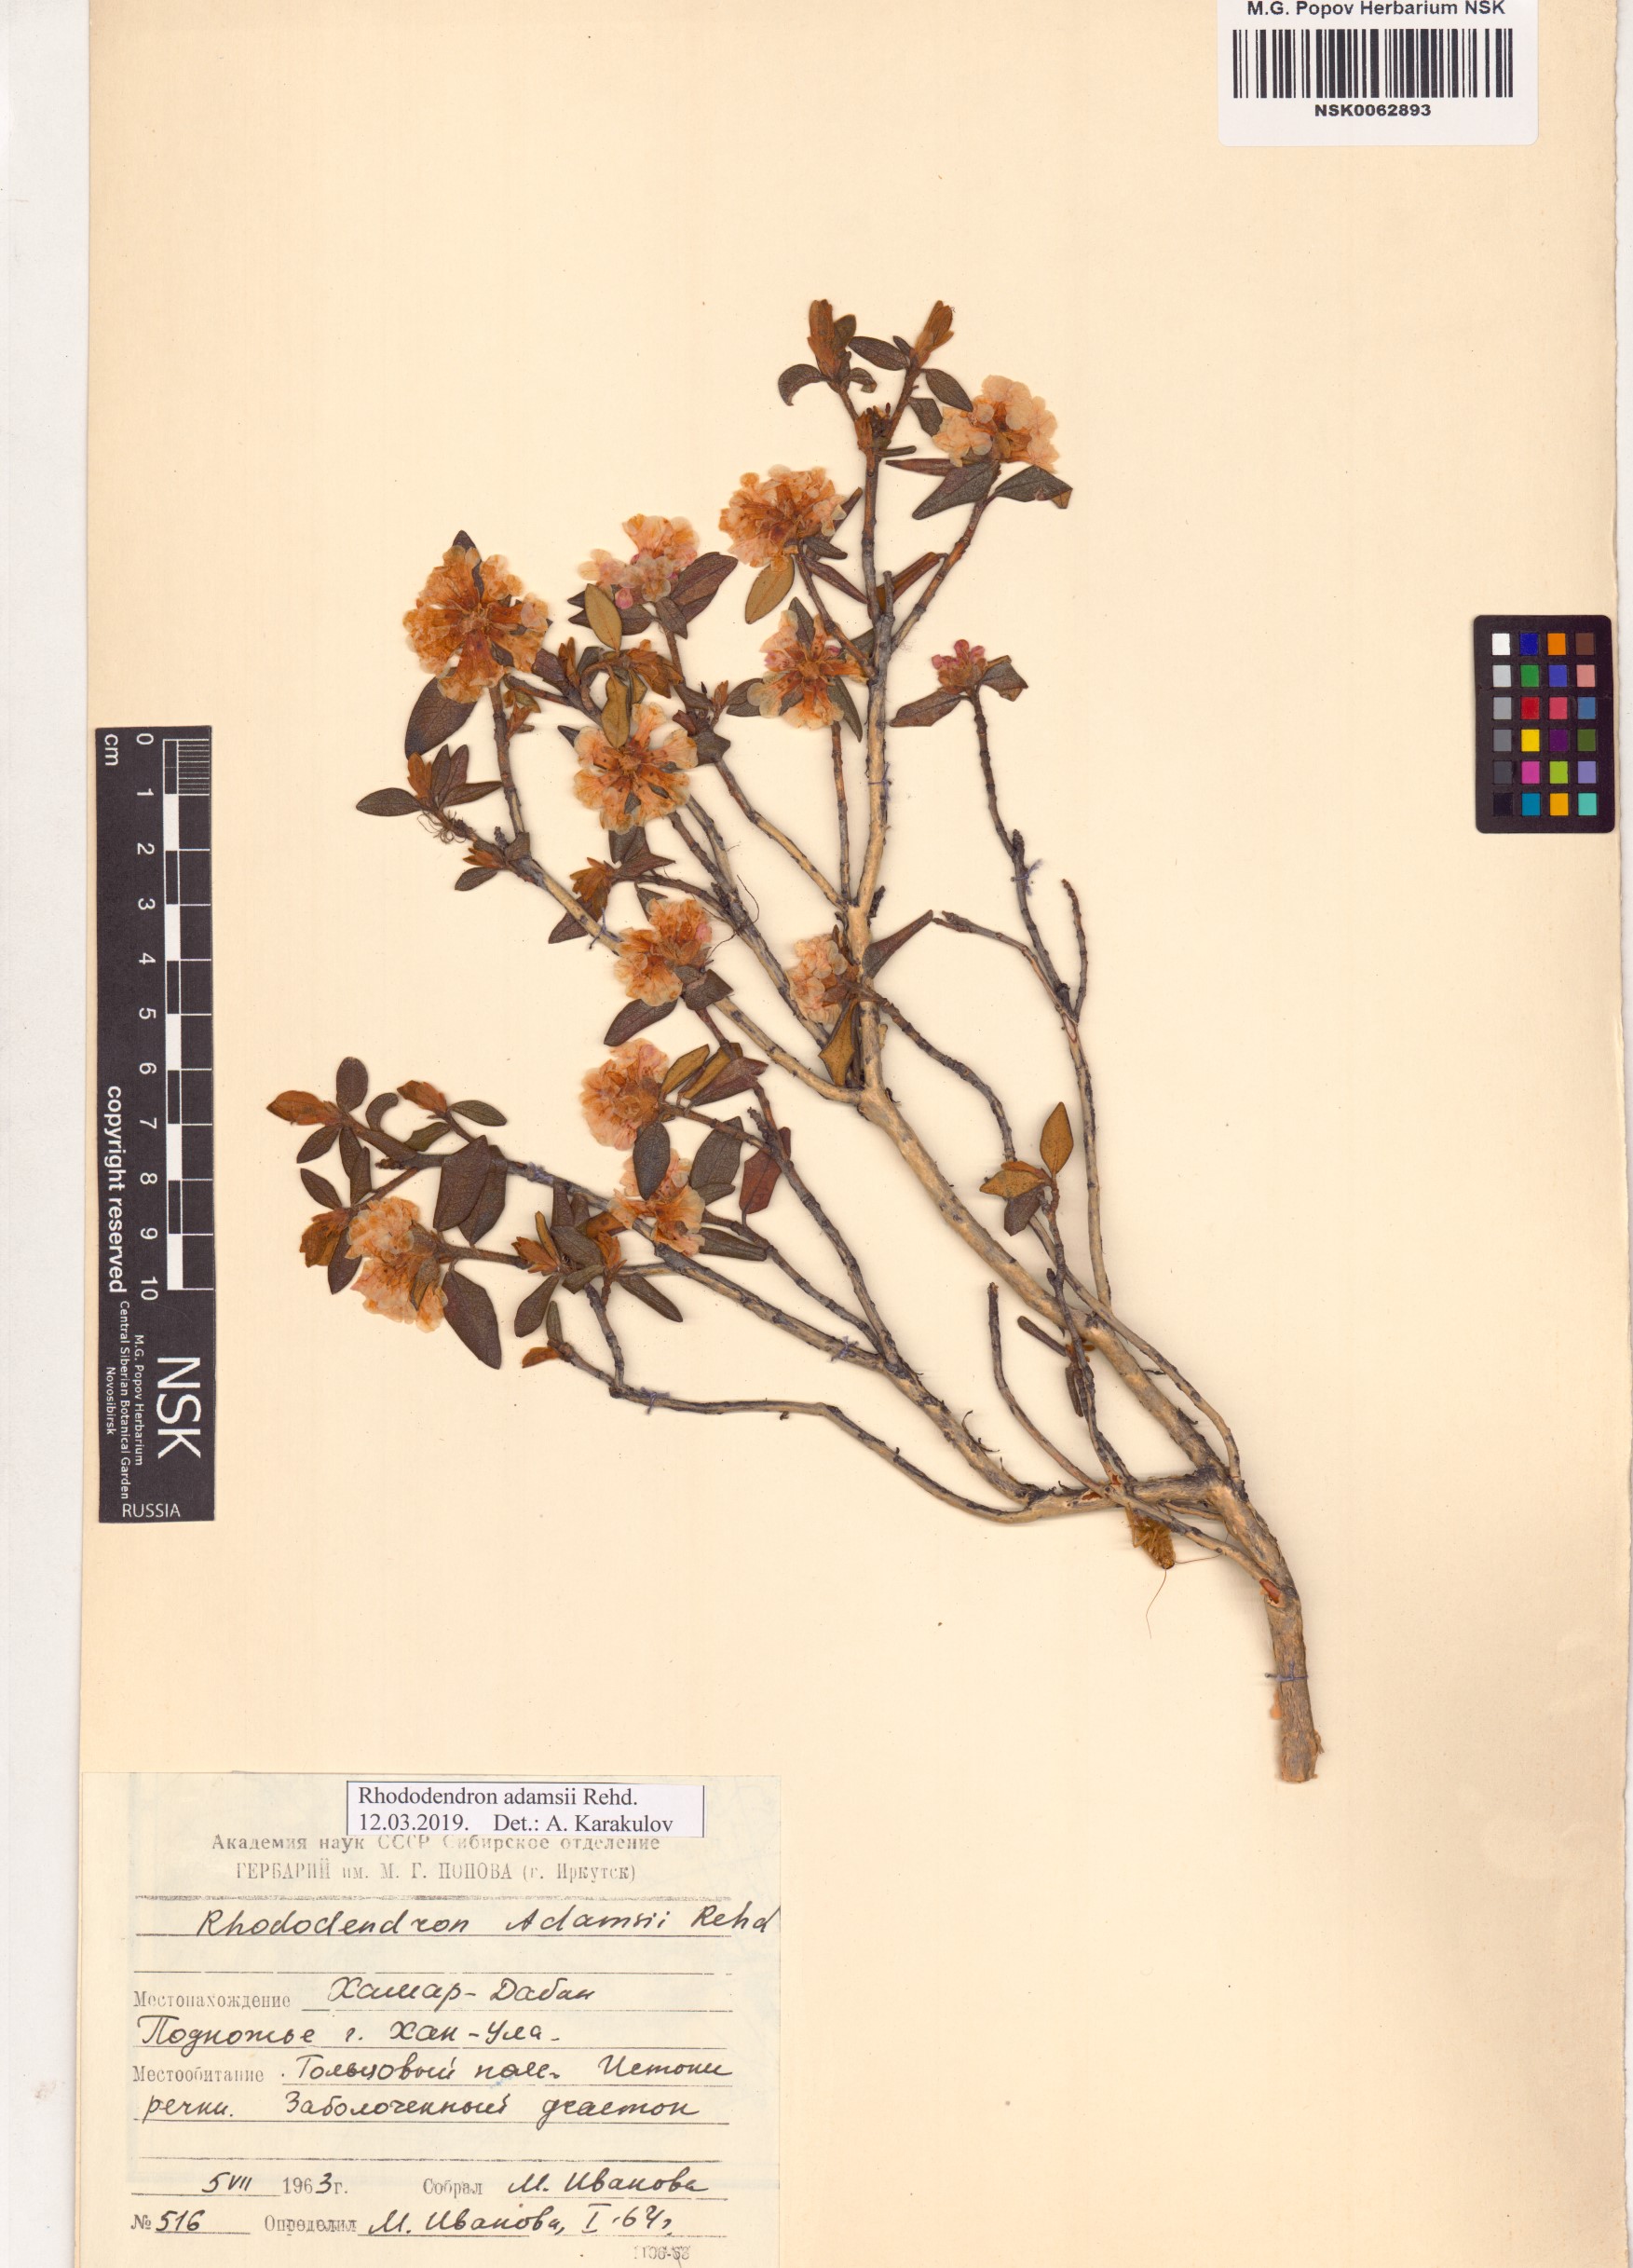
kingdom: Plantae
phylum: Tracheophyta
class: Magnoliopsida
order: Ericales
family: Ericaceae
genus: Rhododendron
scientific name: Rhododendron adamsii
